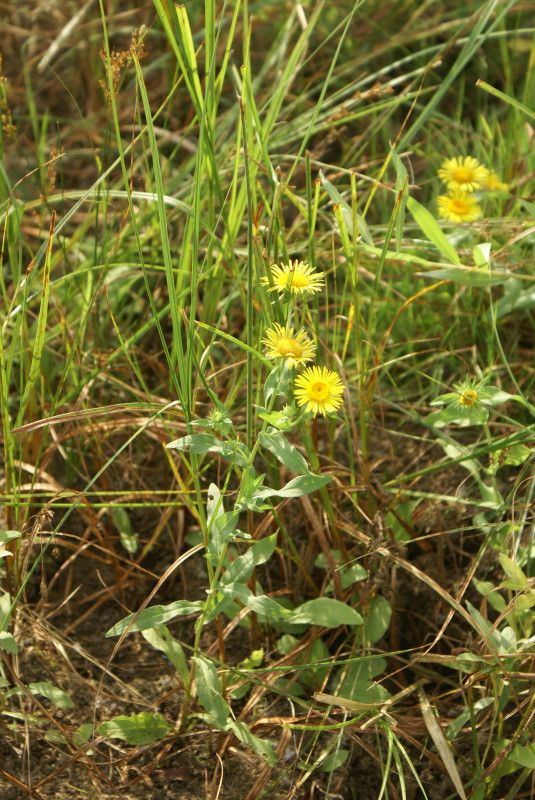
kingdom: Plantae
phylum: Tracheophyta
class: Magnoliopsida
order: Asterales
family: Asteraceae
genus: Pentanema
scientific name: Pentanema salicinum
